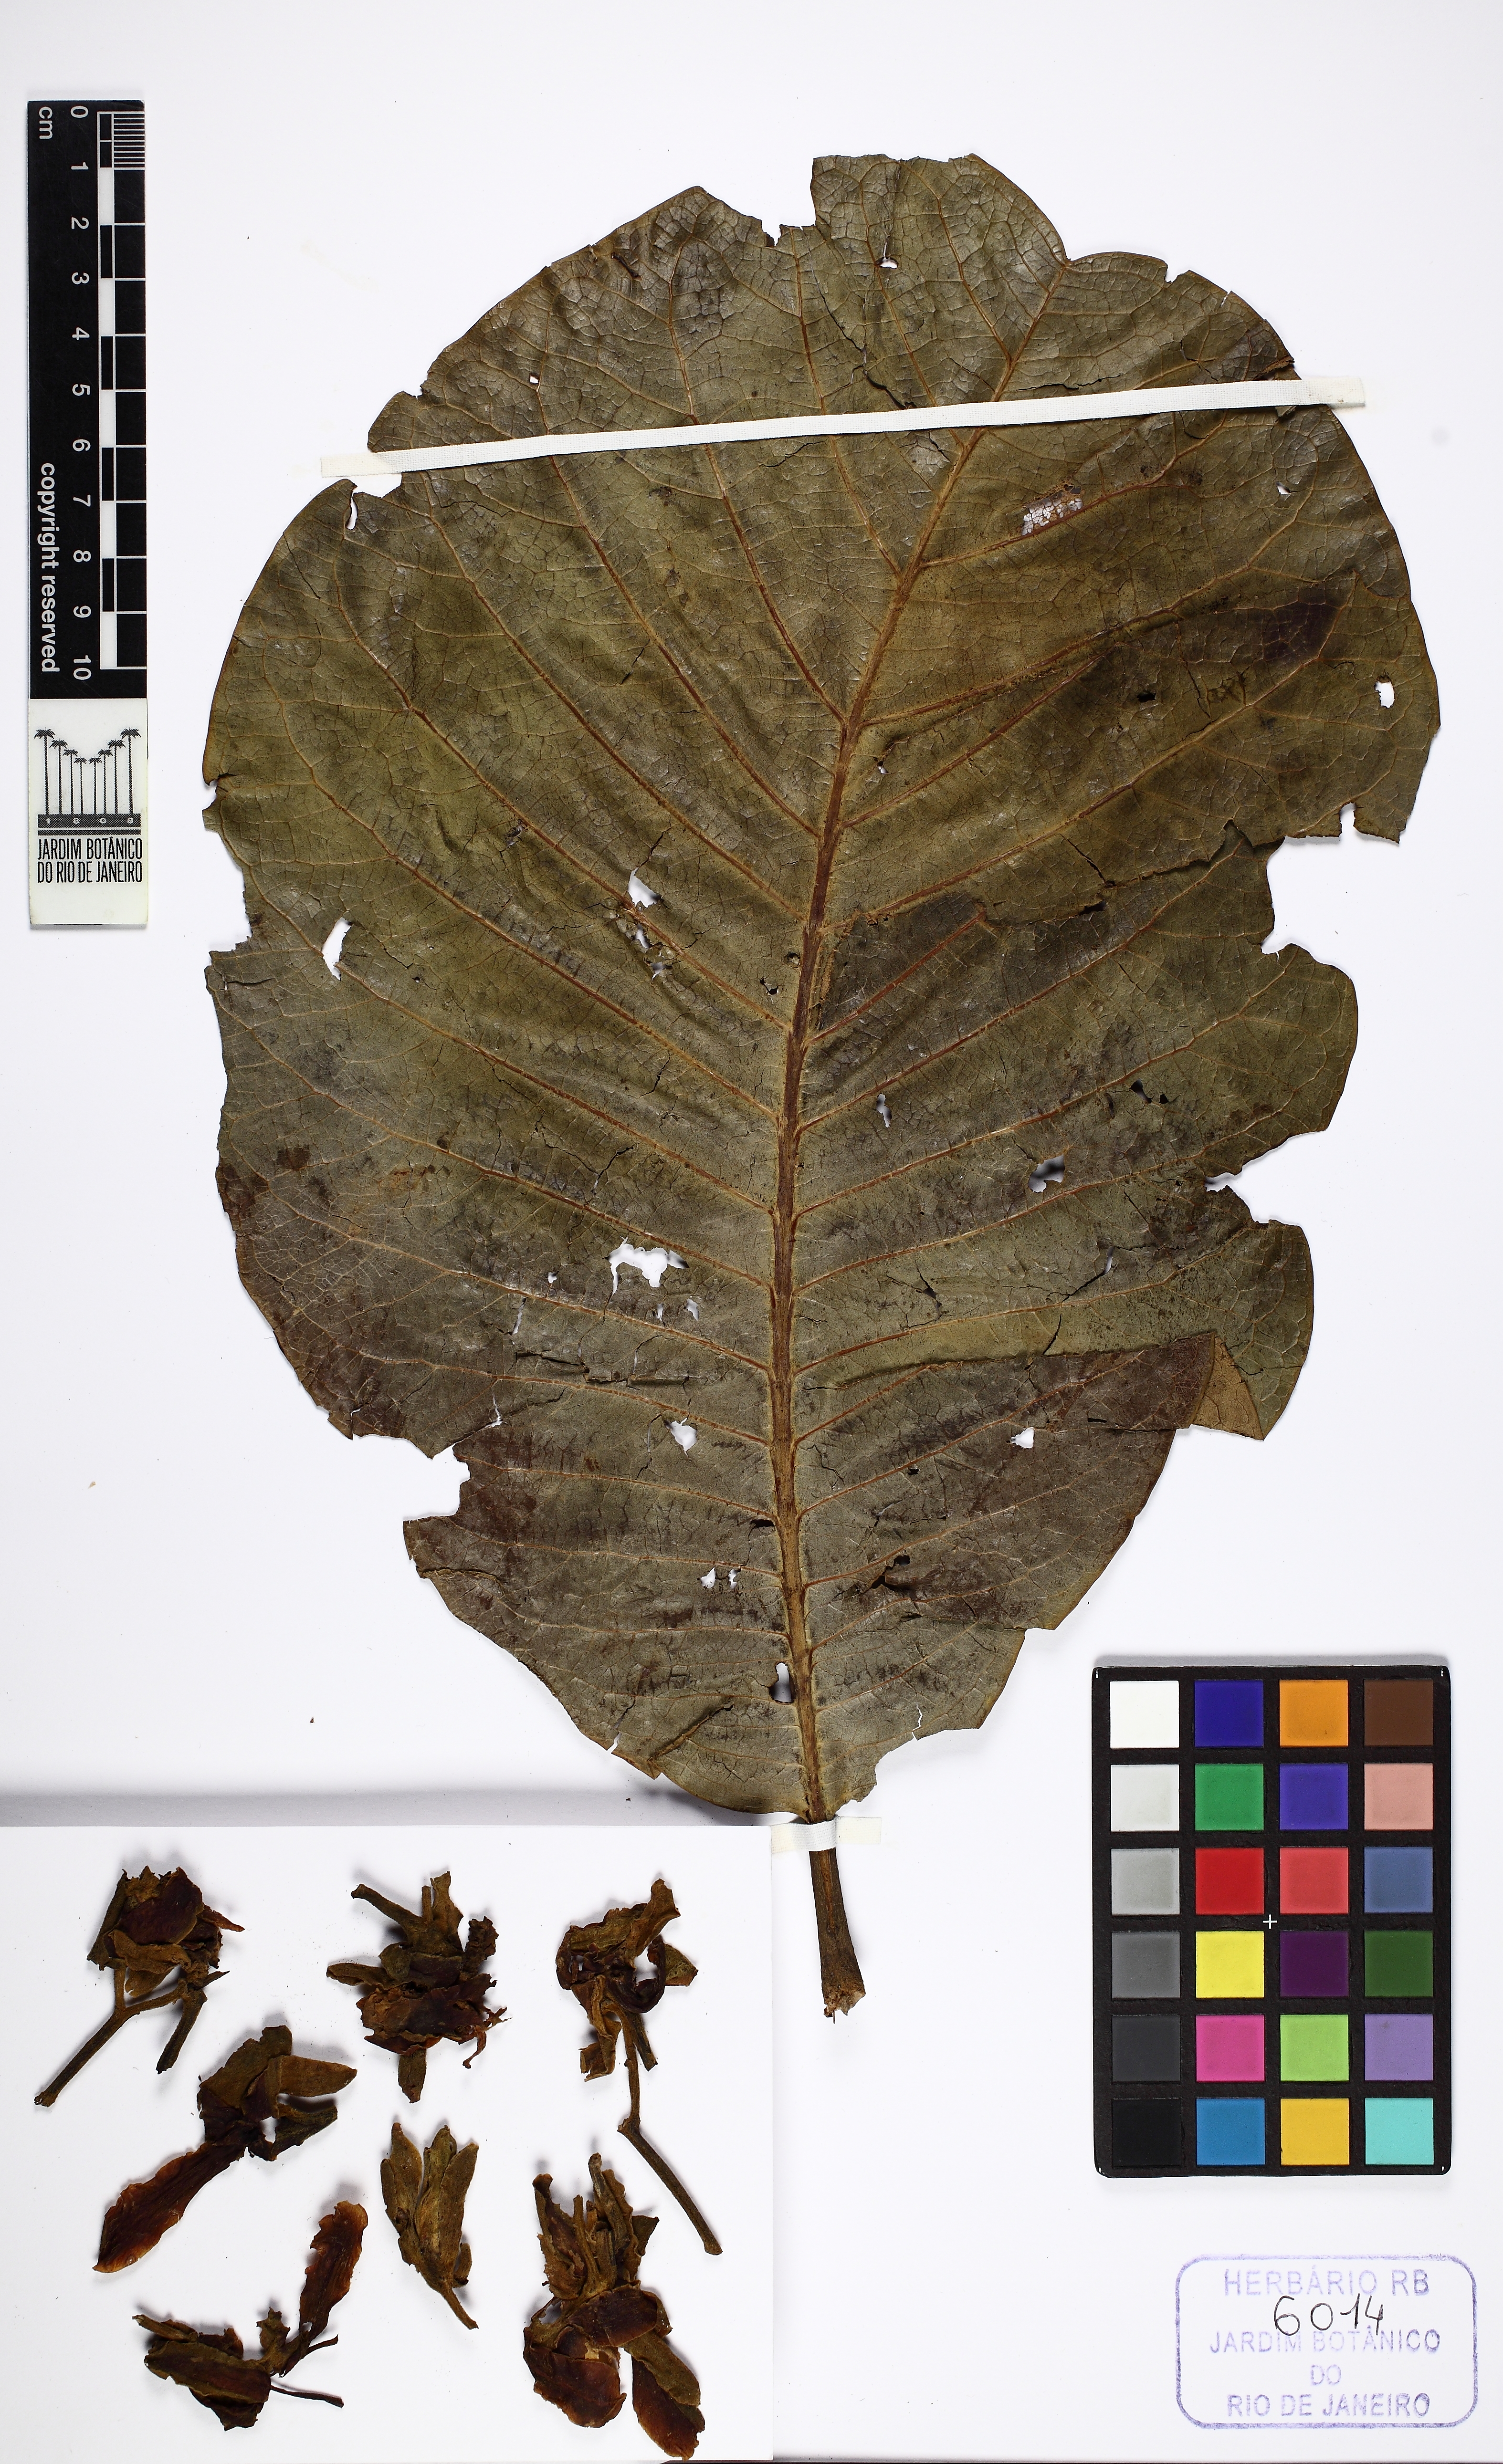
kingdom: Plantae
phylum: Tracheophyta
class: Magnoliopsida
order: Myrtales
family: Vochysiaceae
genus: Salvertia
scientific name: Salvertia convallariodora
